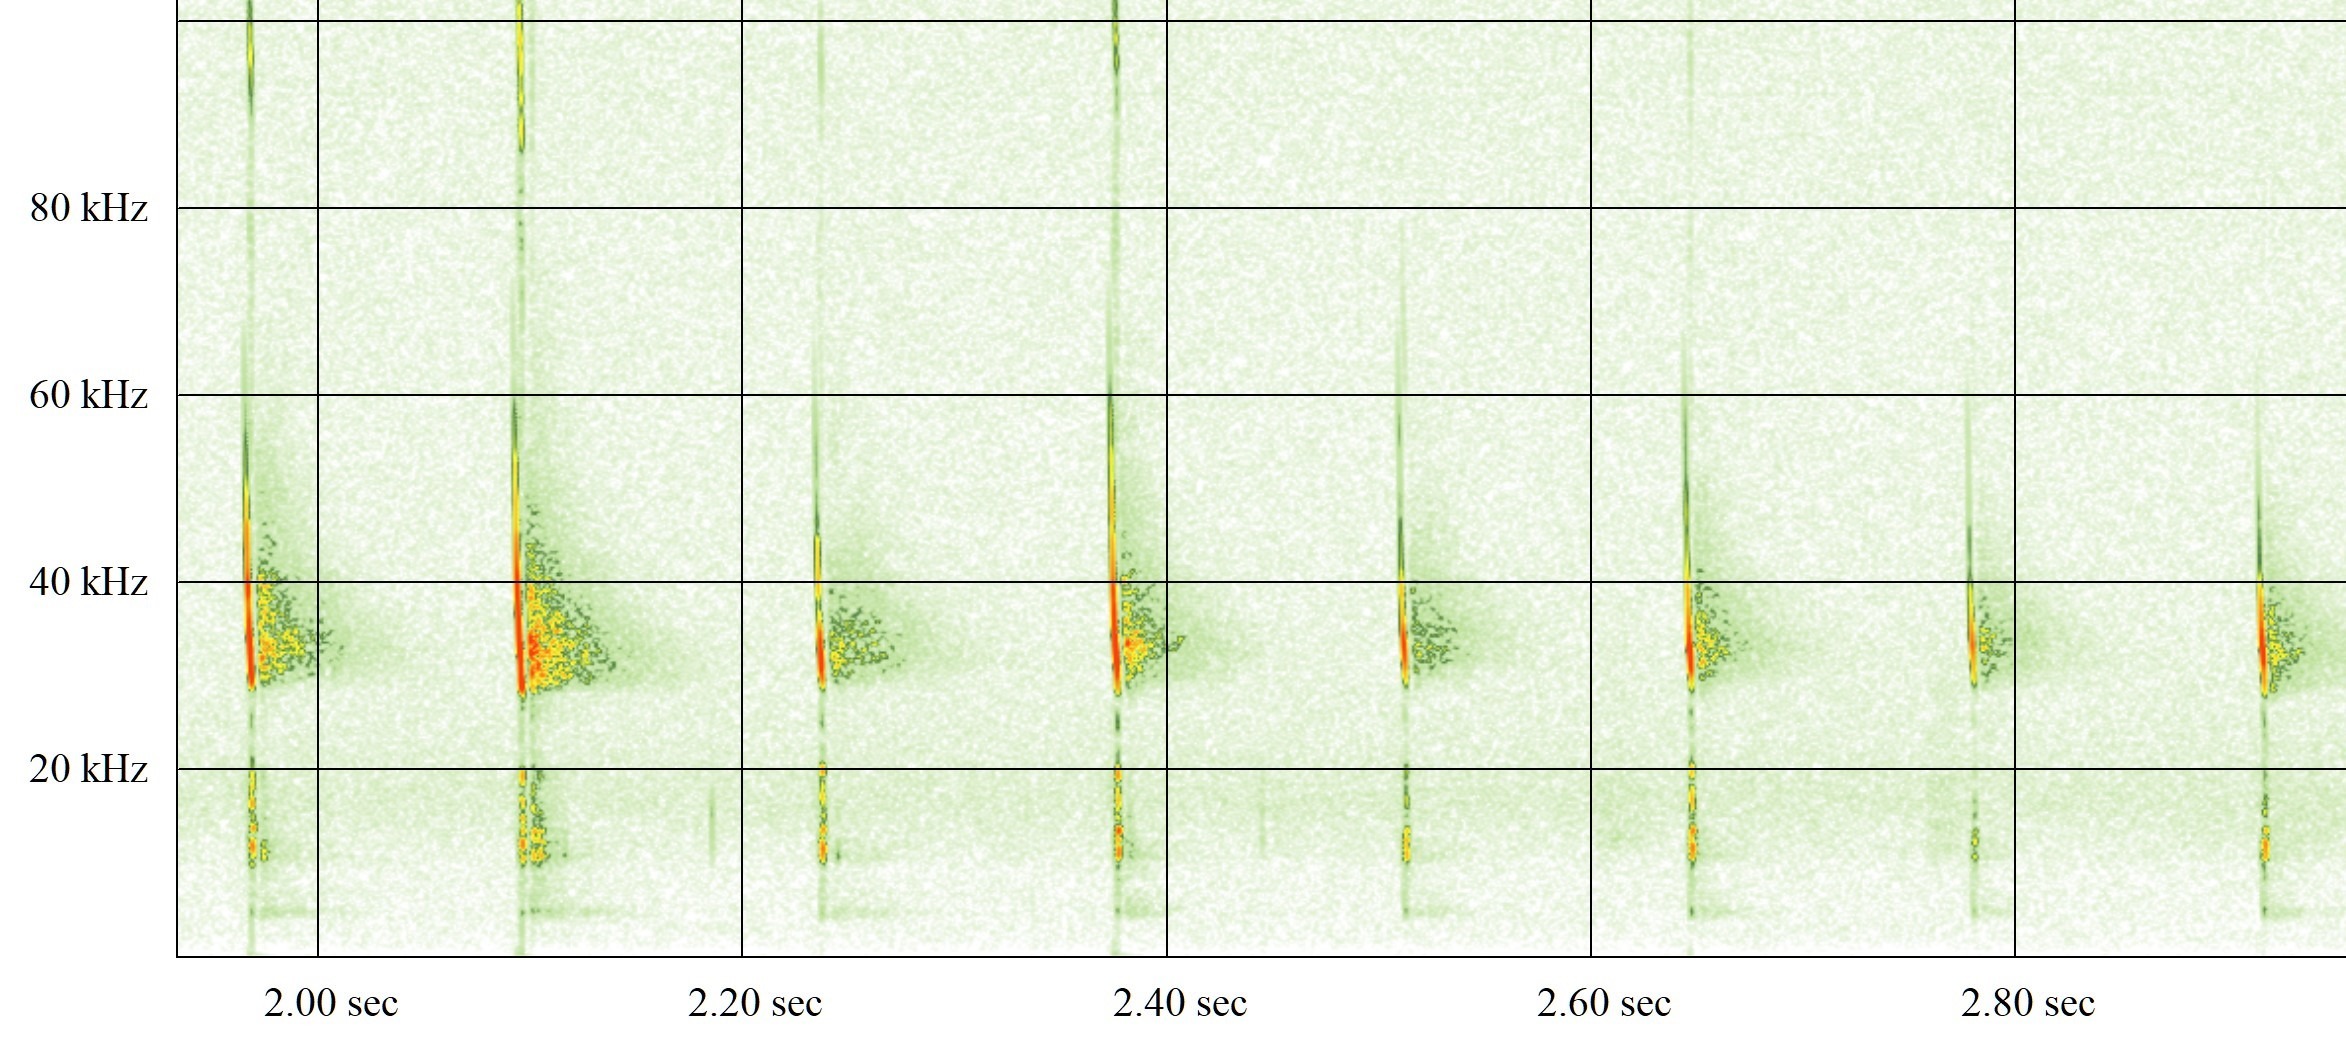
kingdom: Animalia
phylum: Chordata
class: Mammalia
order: Chiroptera
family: Vespertilionidae
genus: Eptesicus
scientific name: Eptesicus serotinus
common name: Sydflagermus
